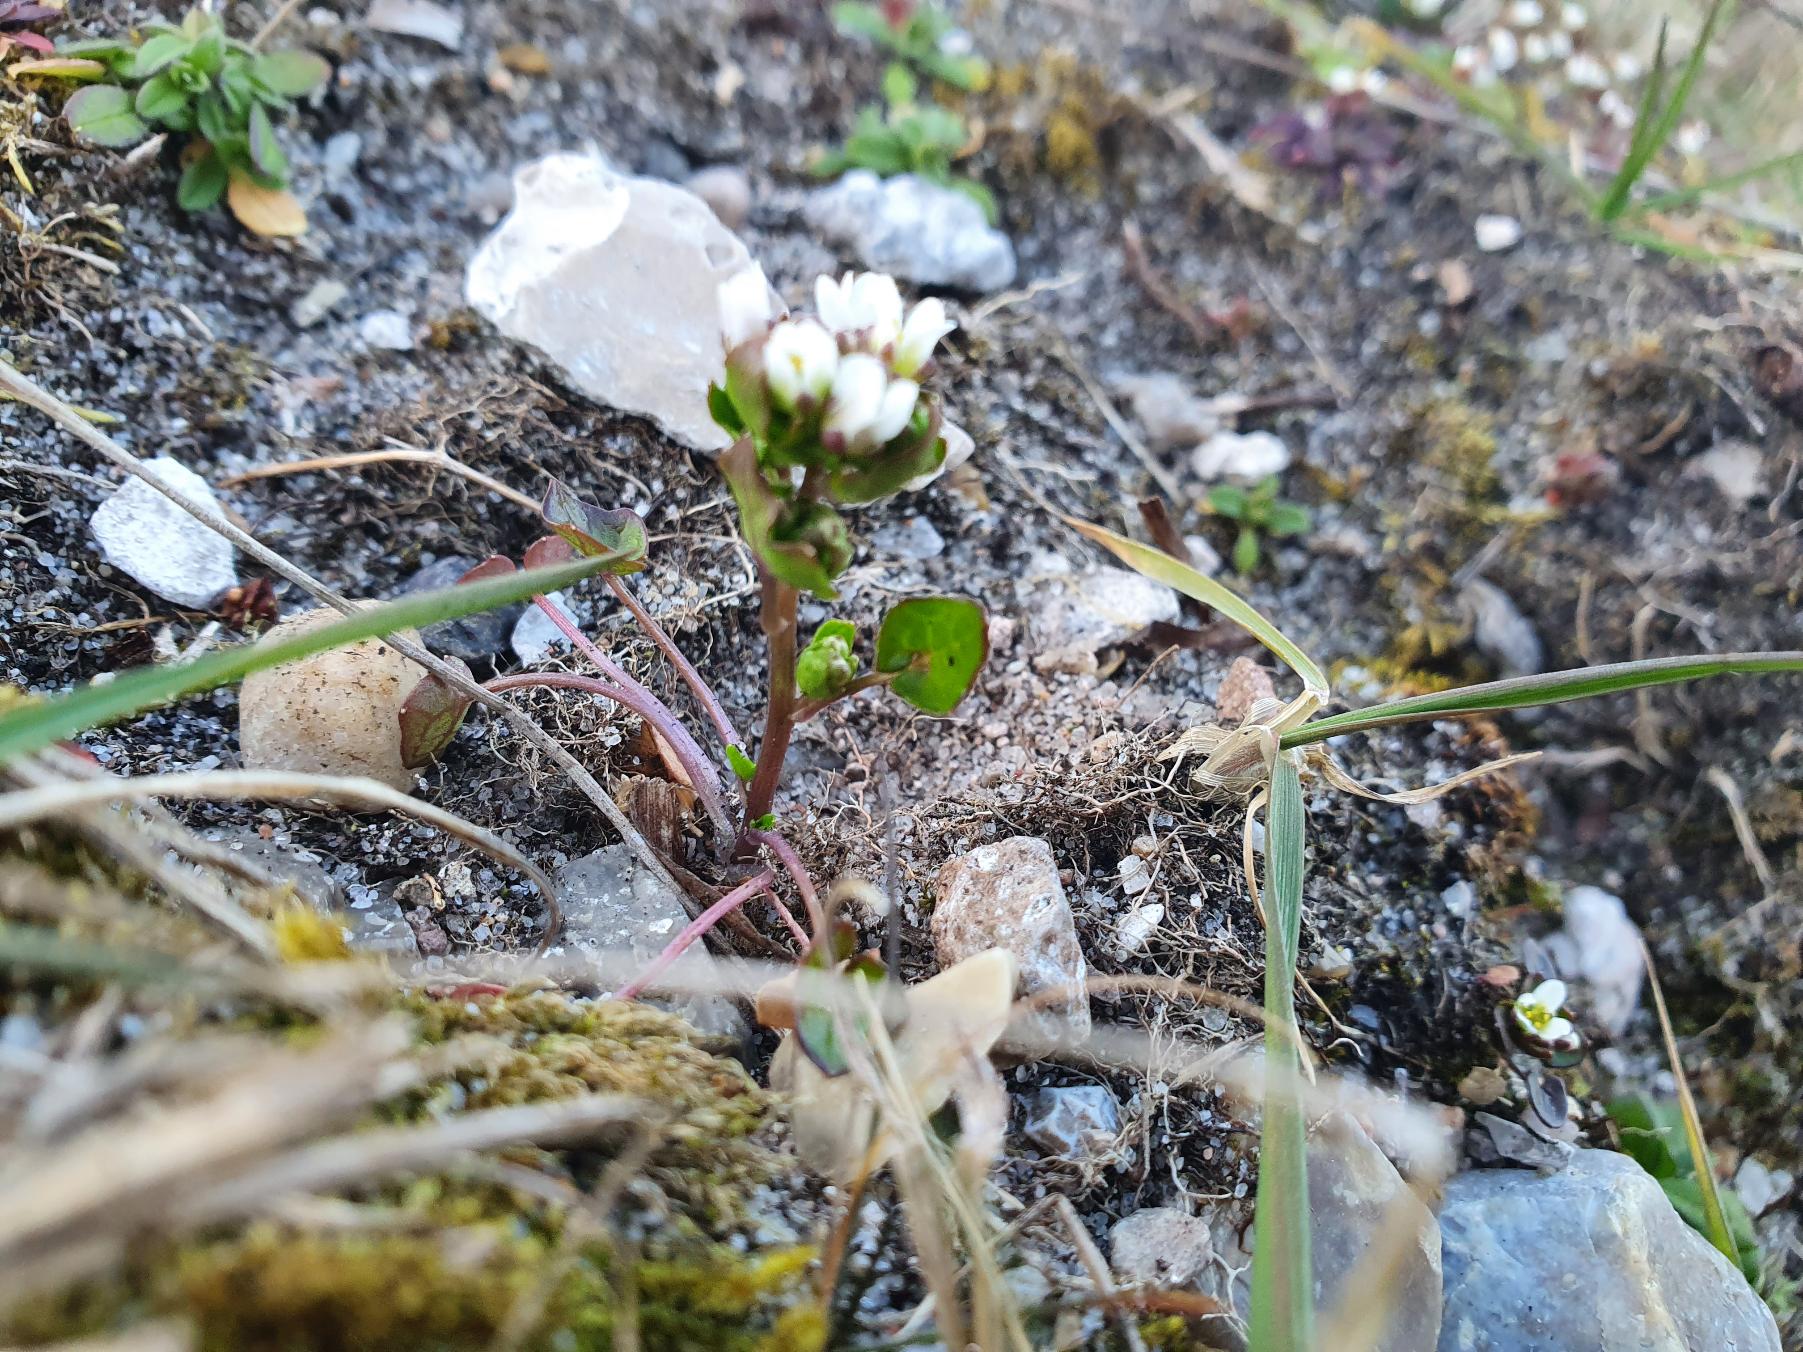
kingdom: Plantae
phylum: Tracheophyta
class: Magnoliopsida
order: Brassicales
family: Brassicaceae
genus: Cochlearia
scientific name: Cochlearia danica
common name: Dansk kokleare
